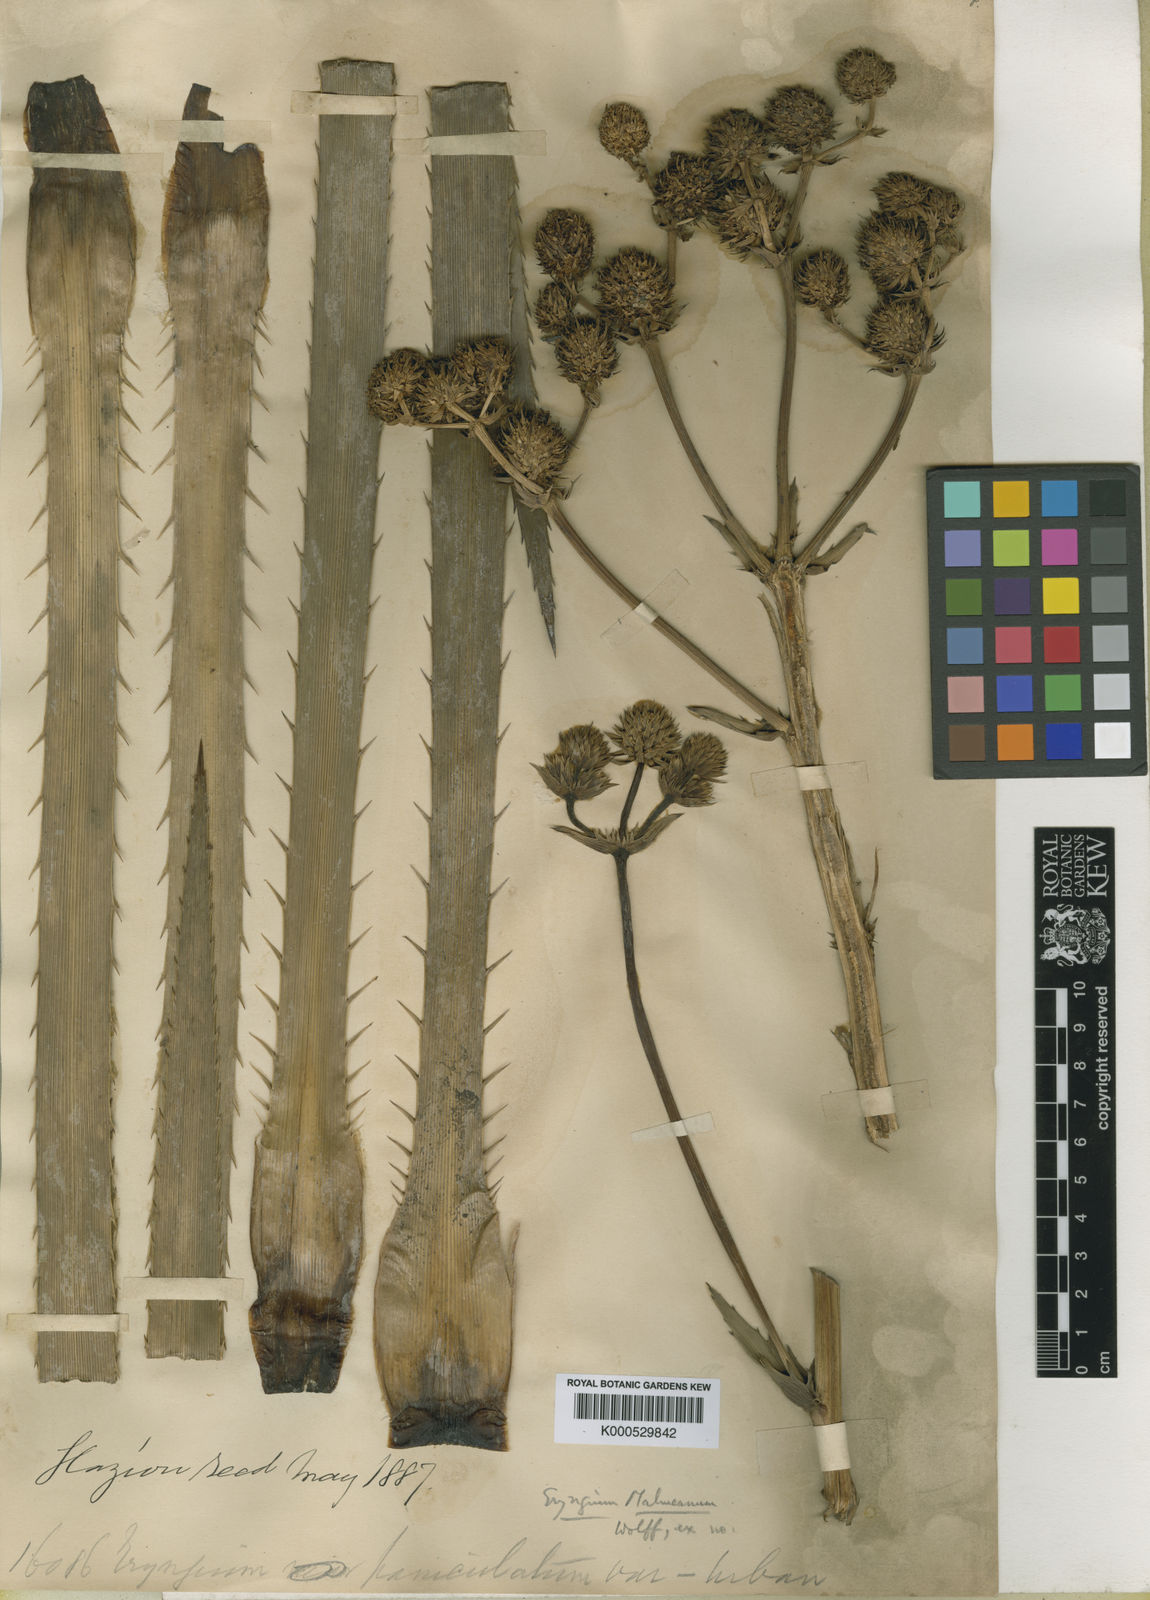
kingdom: Plantae
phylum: Tracheophyta
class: Magnoliopsida
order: Apiales
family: Apiaceae
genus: Eryngium
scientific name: Eryngium malmeanum
